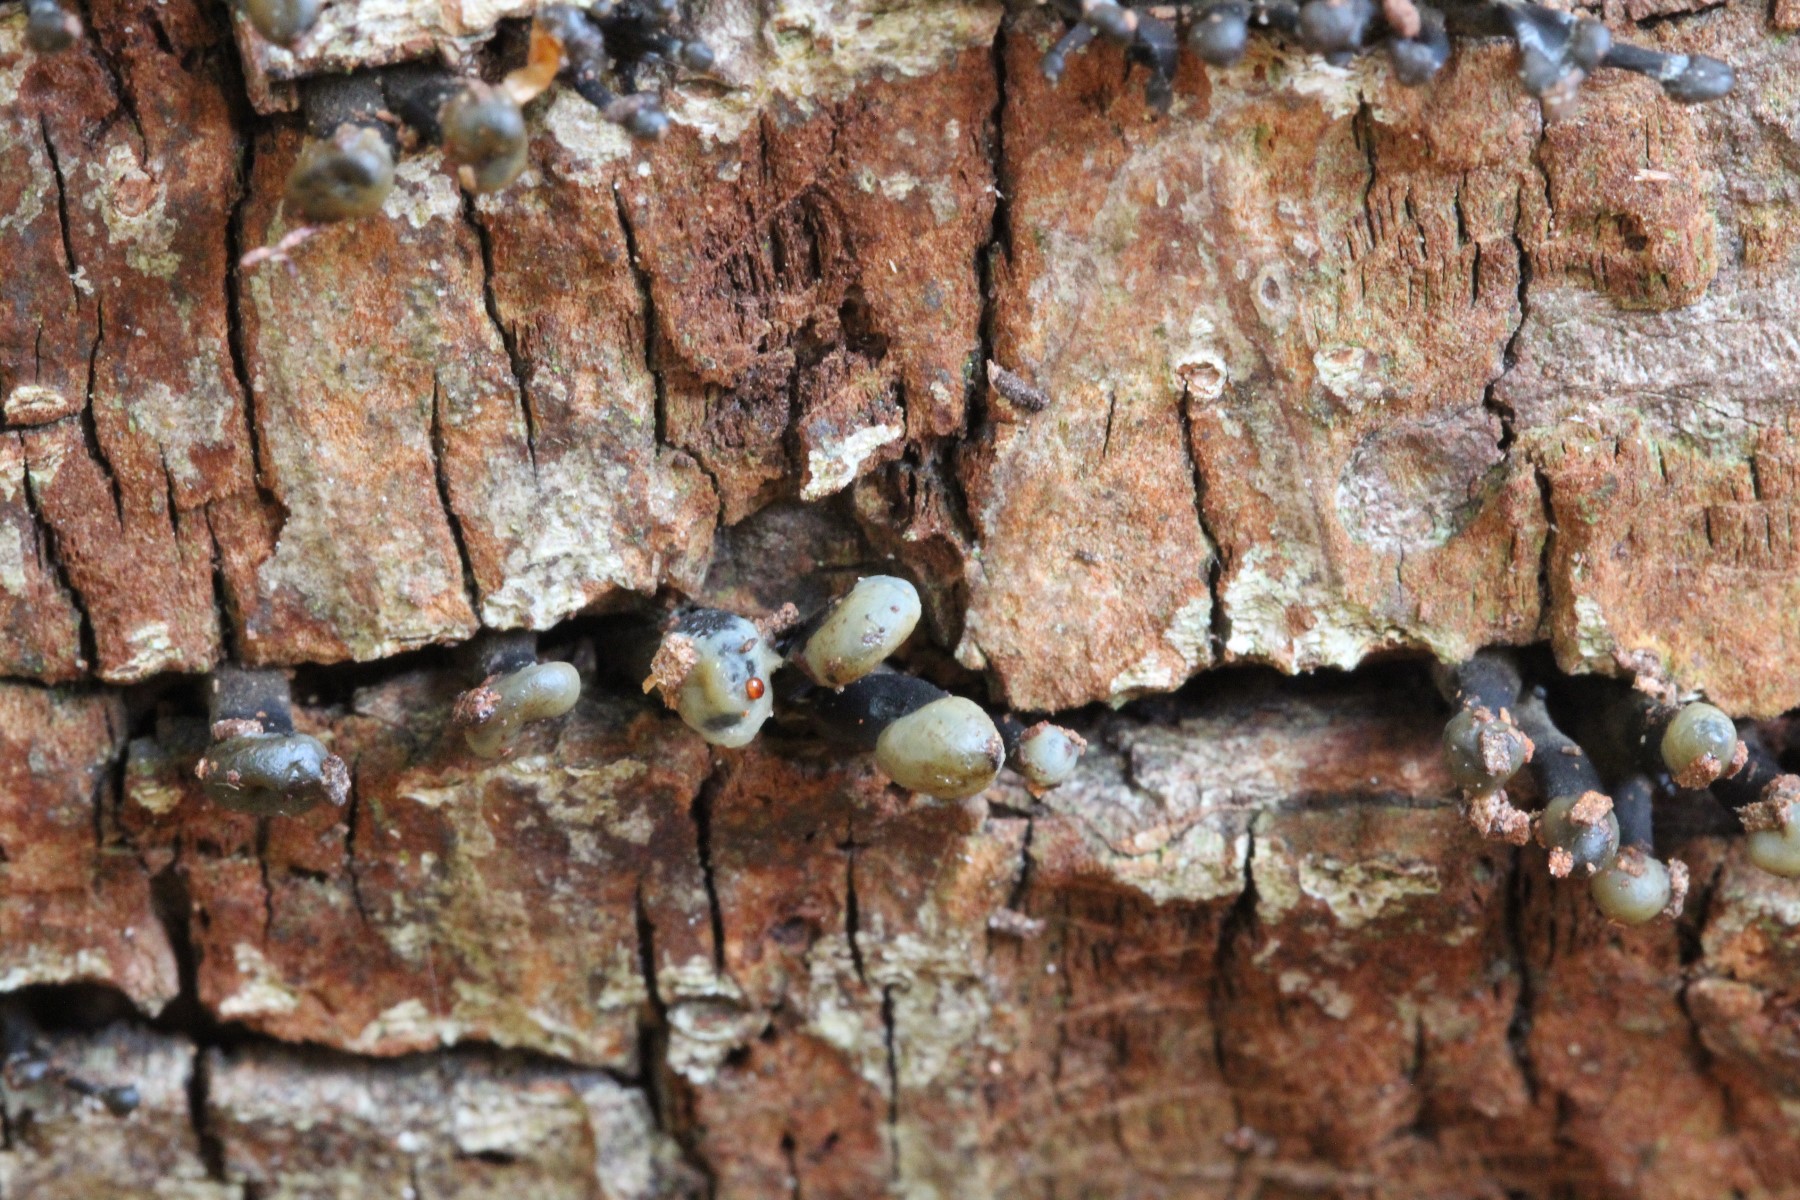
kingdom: Fungi
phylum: Ascomycota
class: Leotiomycetes
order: Helotiales
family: Bulgariaceae
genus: Holwaya
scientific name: Holwaya mucida
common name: lindeskive
